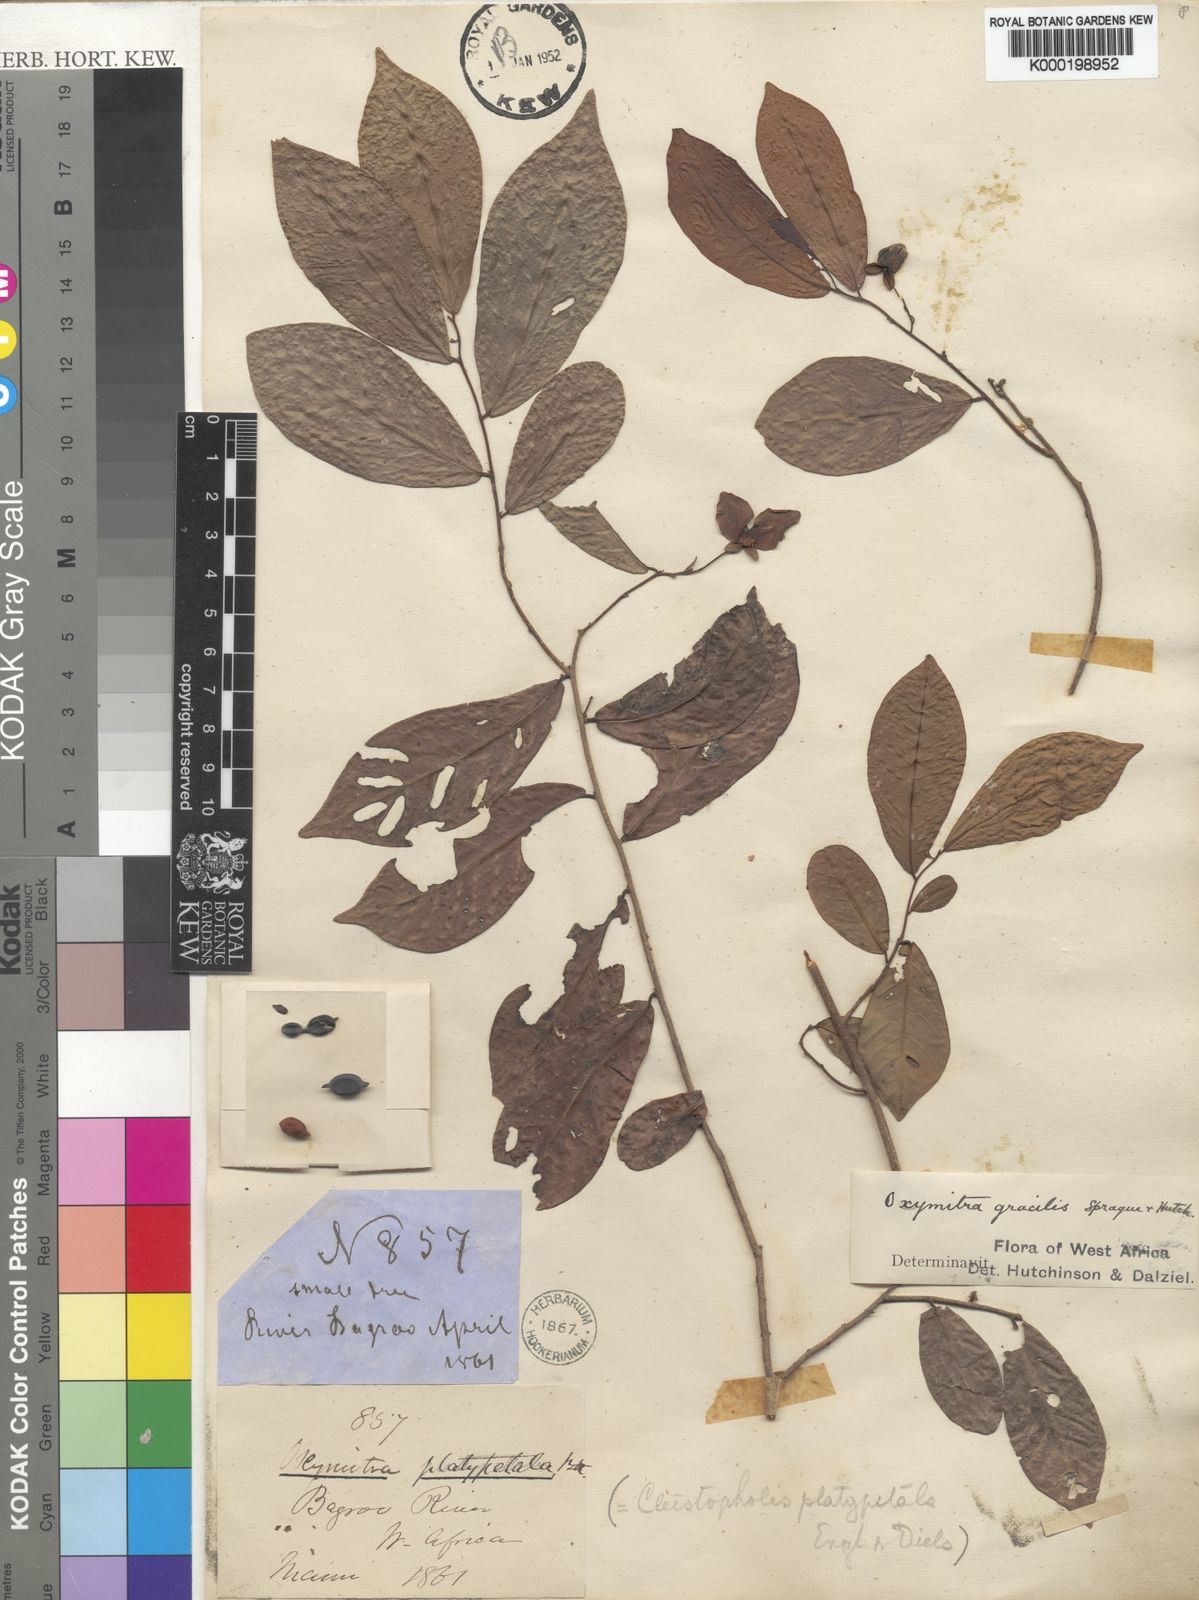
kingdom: Plantae
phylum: Tracheophyta
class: Magnoliopsida
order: Magnoliales
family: Annonaceae
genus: Friesodielsia
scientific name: Friesodielsia gracilis
